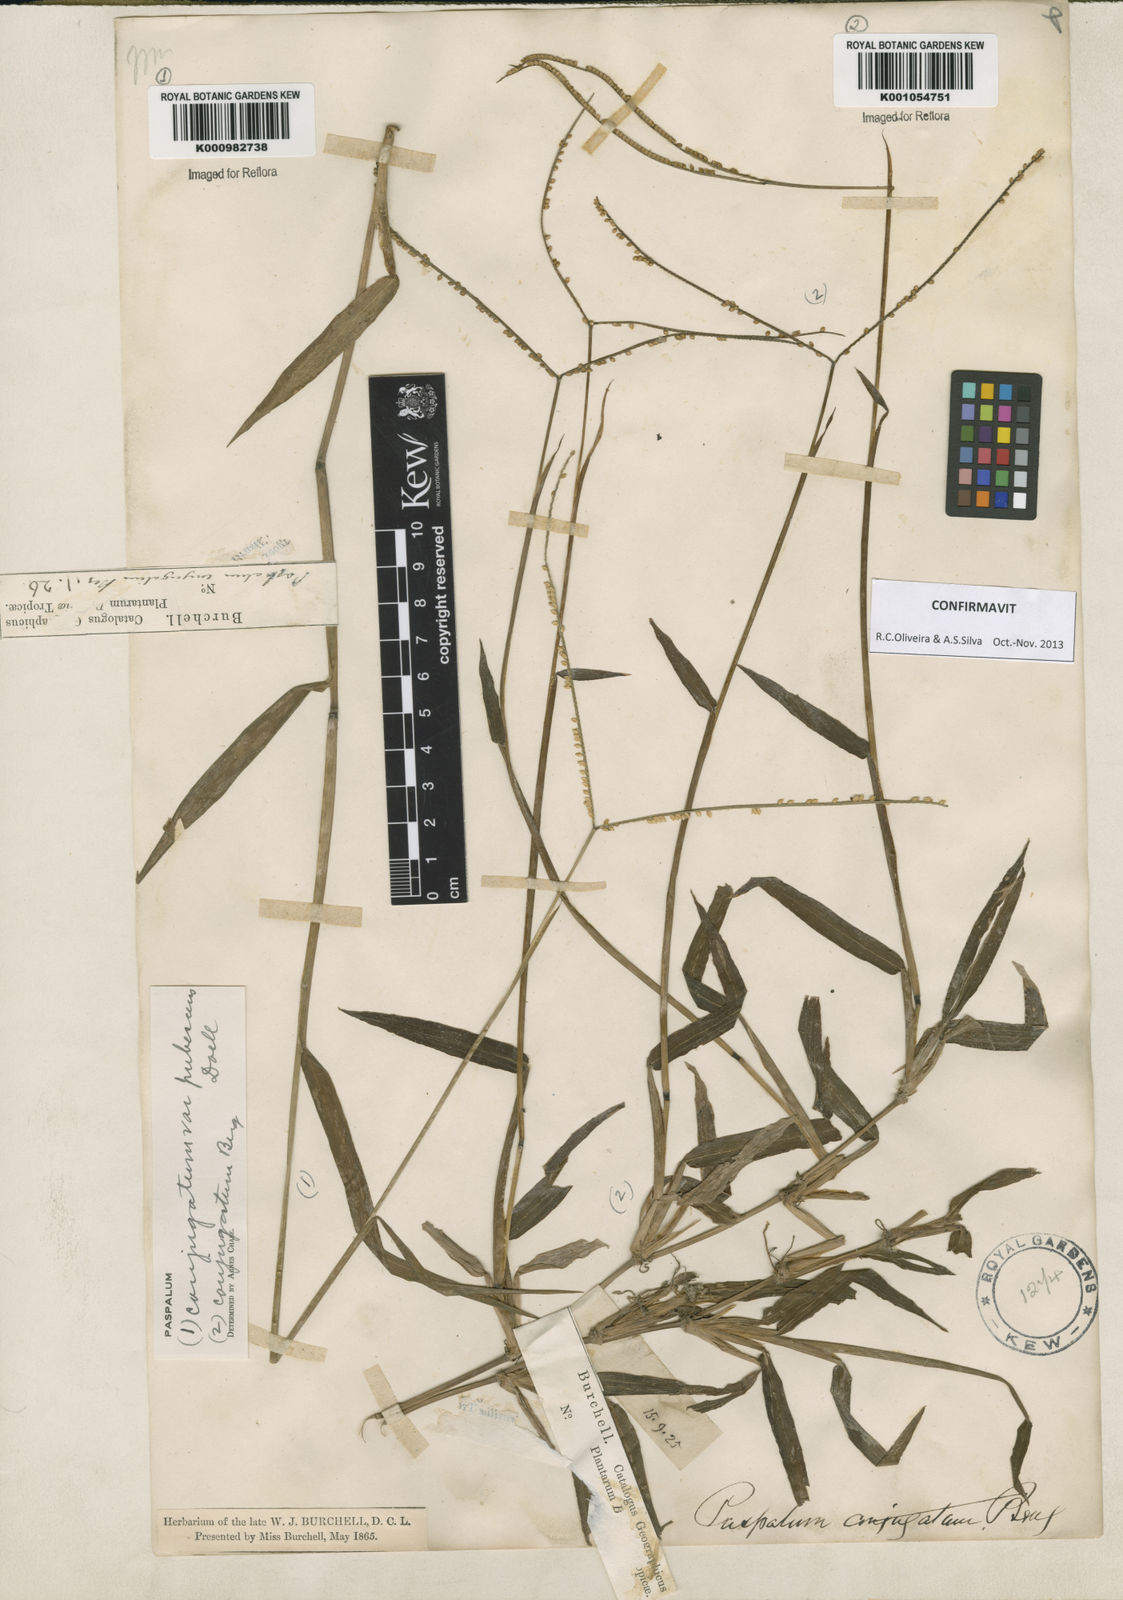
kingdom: Plantae
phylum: Tracheophyta
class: Liliopsida
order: Poales
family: Poaceae
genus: Paspalum
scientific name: Paspalum conjugatum
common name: Hilograss
